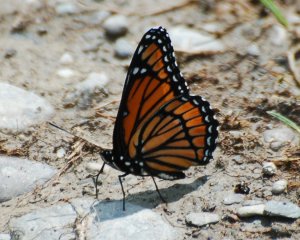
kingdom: Animalia
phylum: Arthropoda
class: Insecta
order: Lepidoptera
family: Nymphalidae
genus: Limenitis
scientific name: Limenitis archippus
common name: Viceroy
